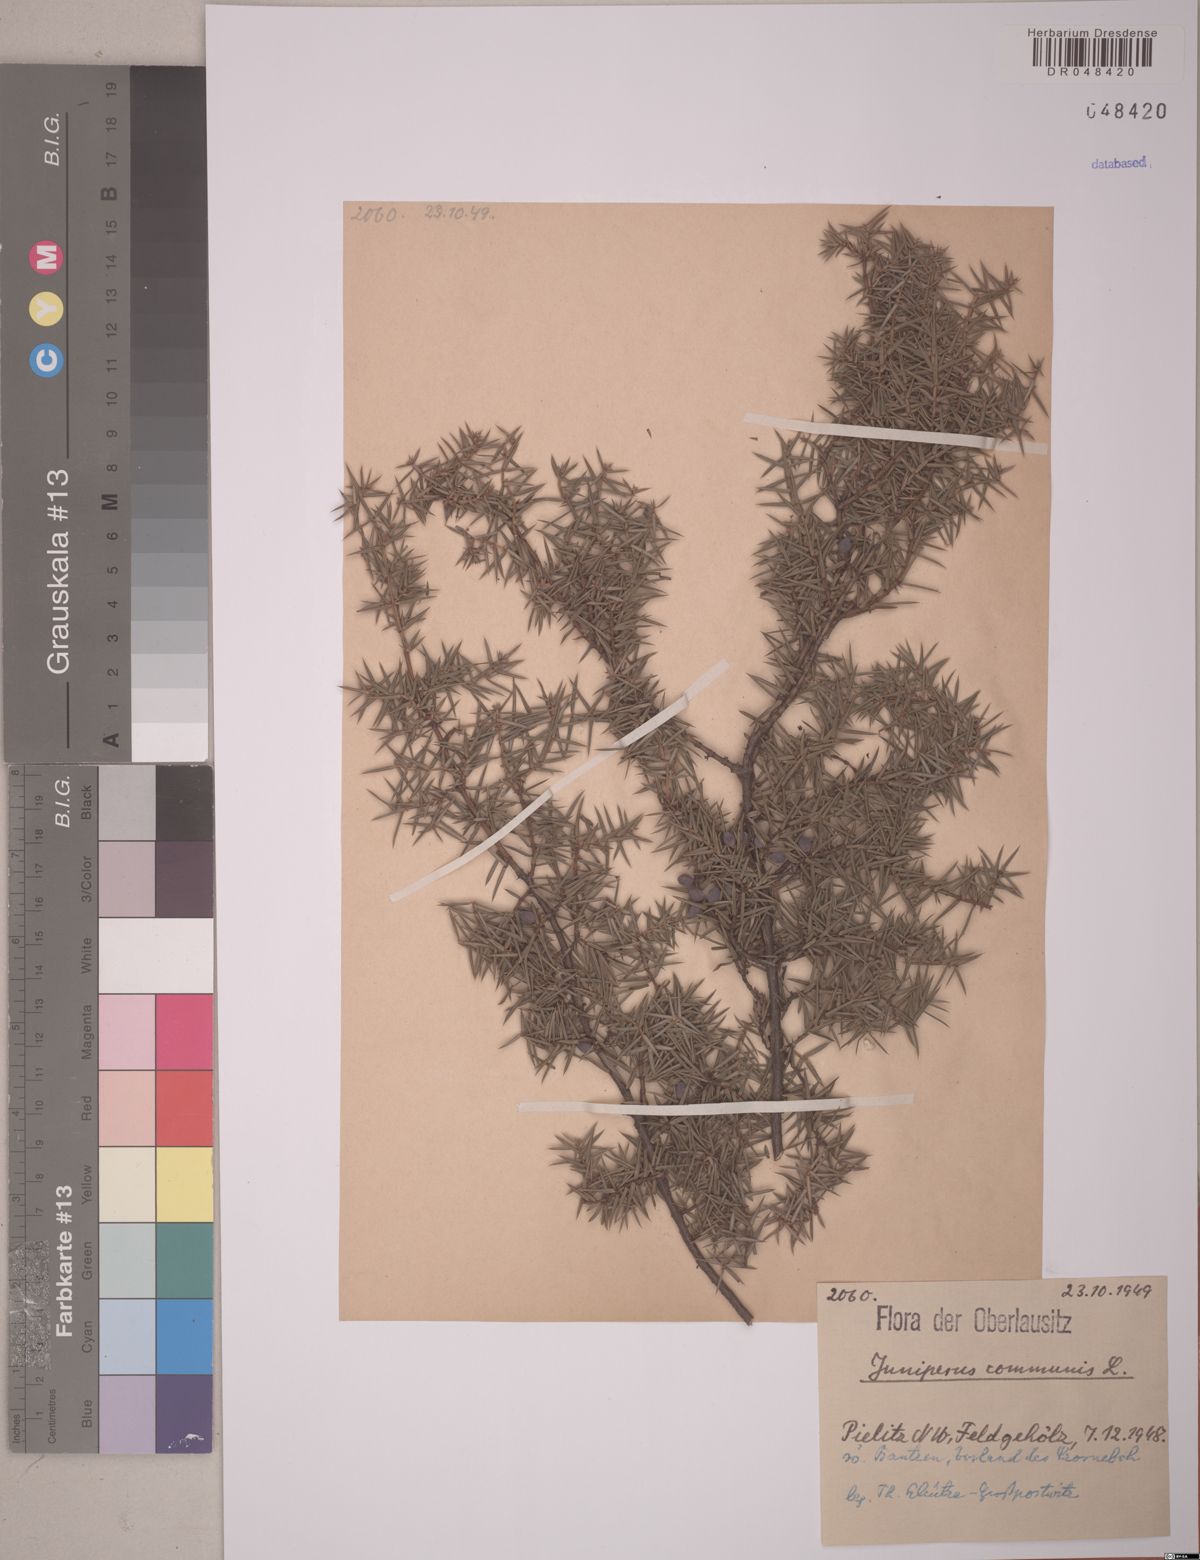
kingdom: Plantae
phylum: Tracheophyta
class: Pinopsida
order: Pinales
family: Cupressaceae
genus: Juniperus
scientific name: Juniperus communis
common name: Common juniper
